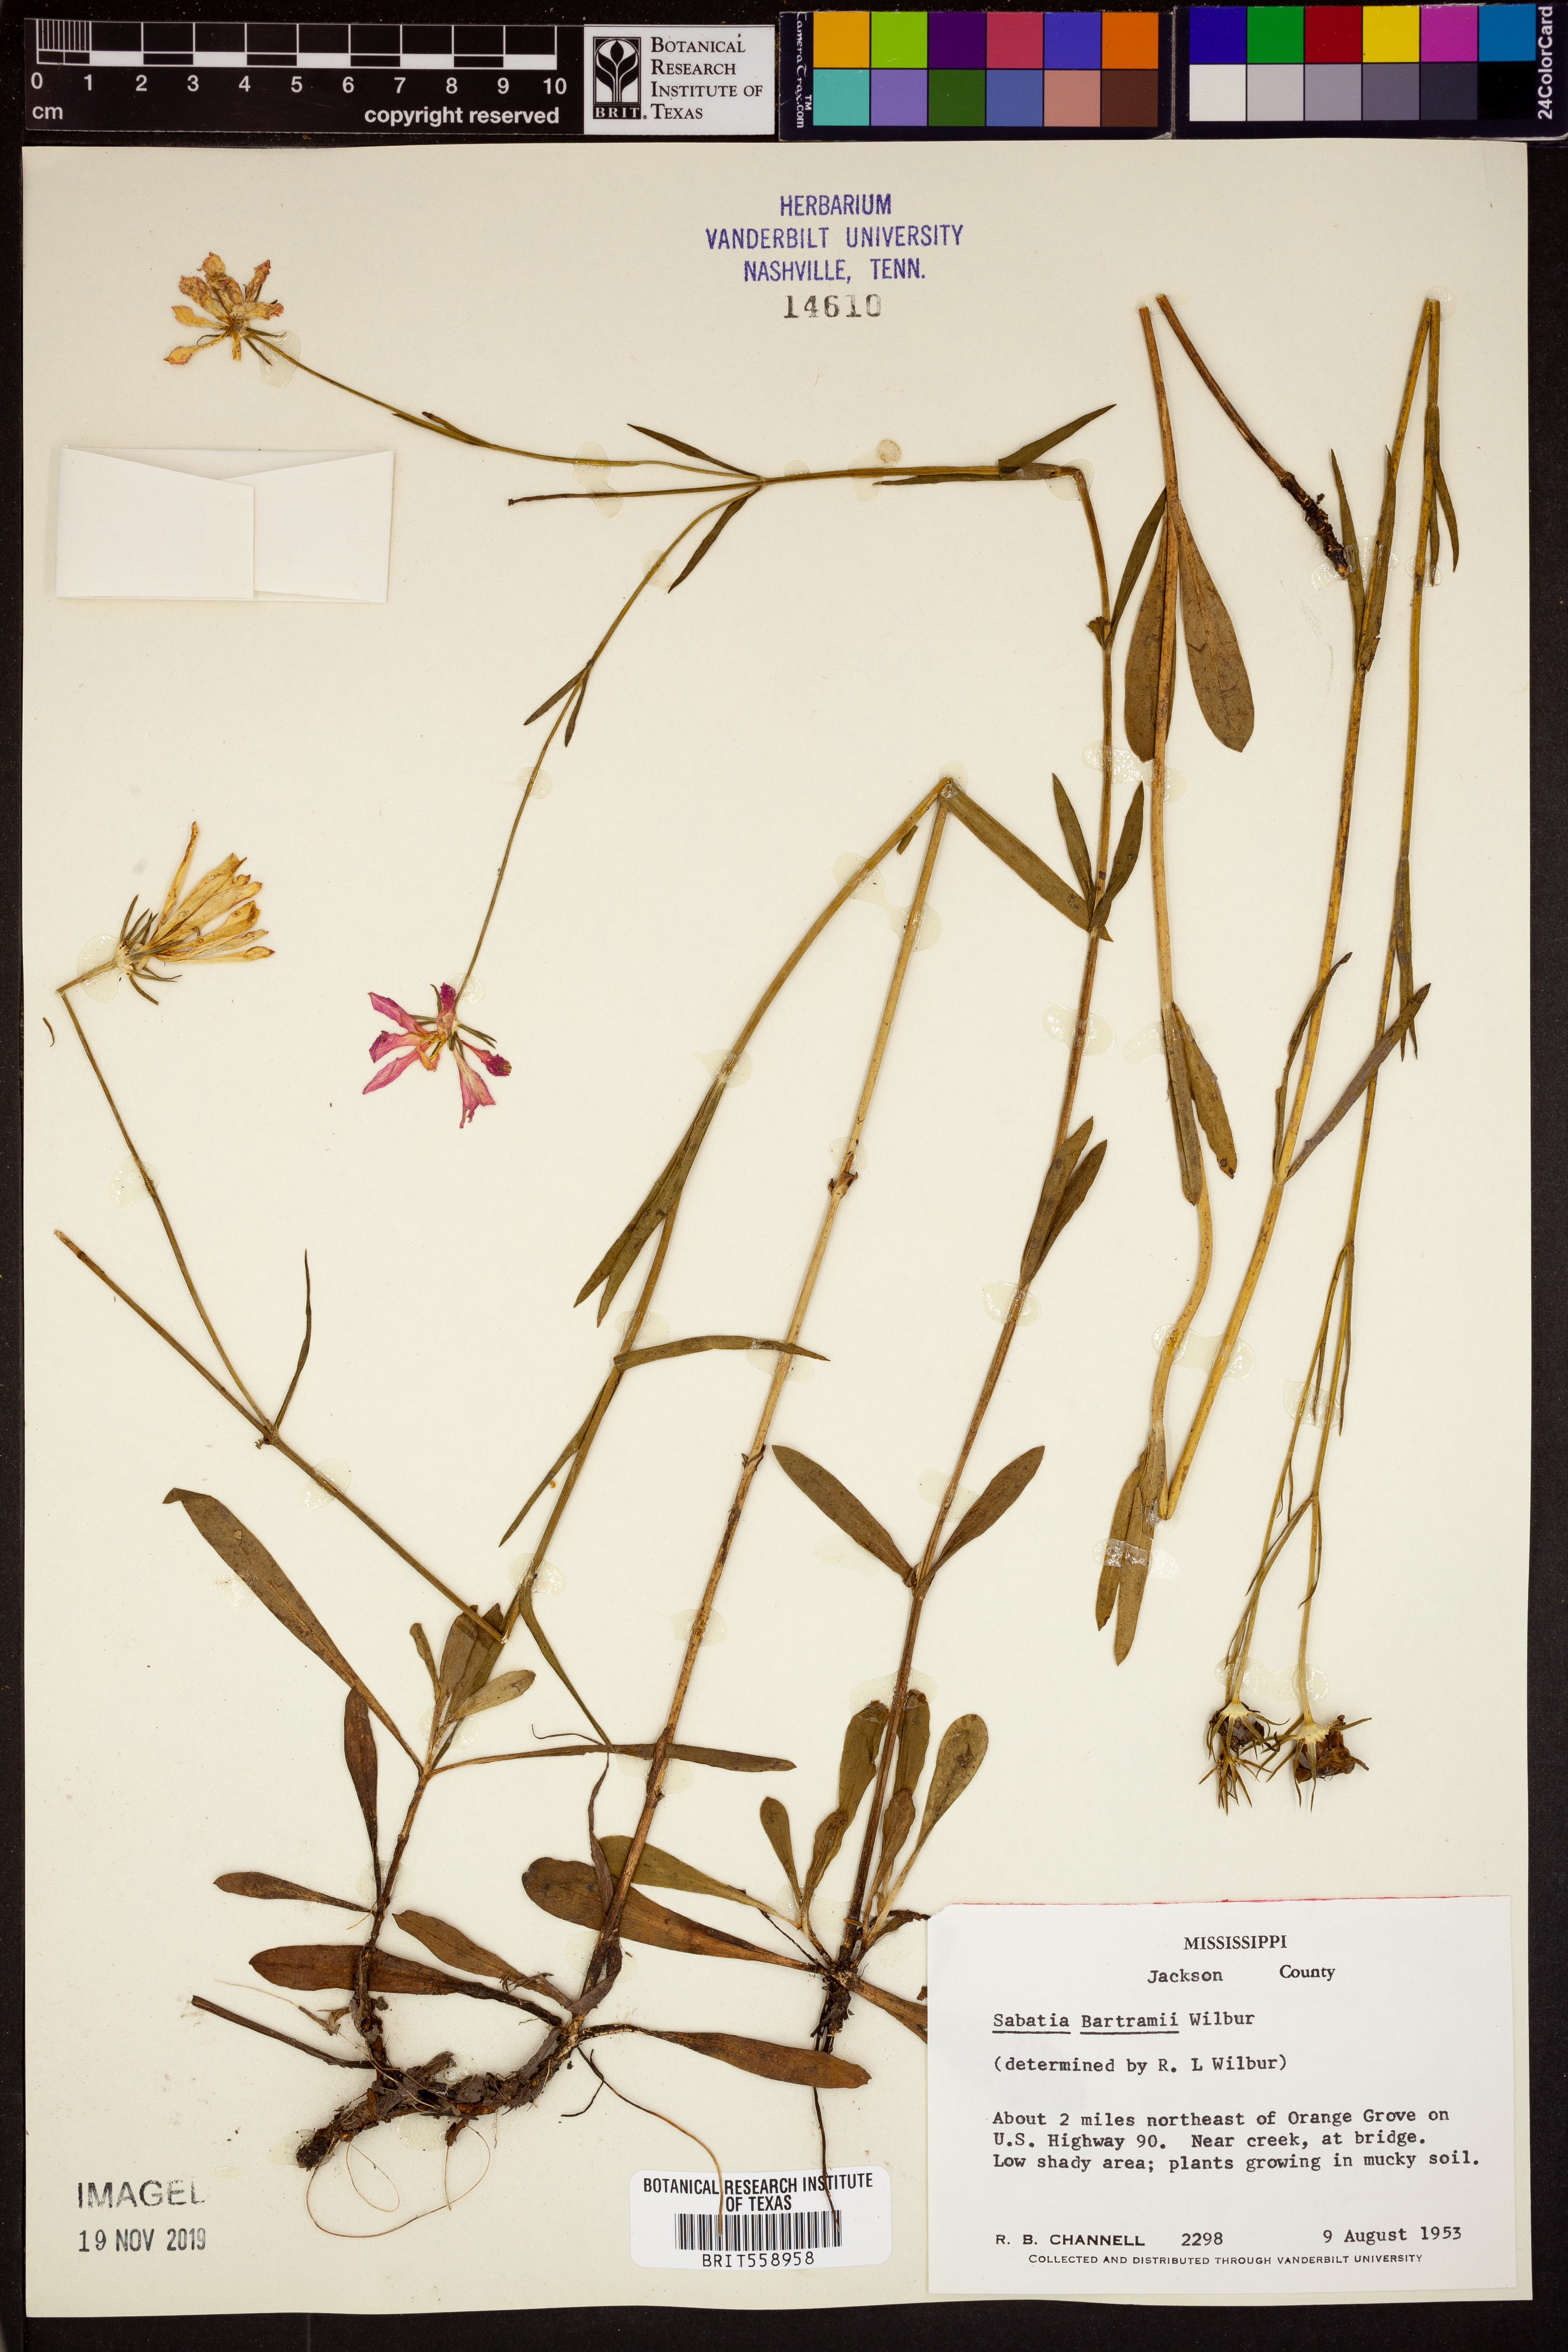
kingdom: Plantae
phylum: Tracheophyta
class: Magnoliopsida
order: Gentianales
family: Gentianaceae
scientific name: Gentianaceae
